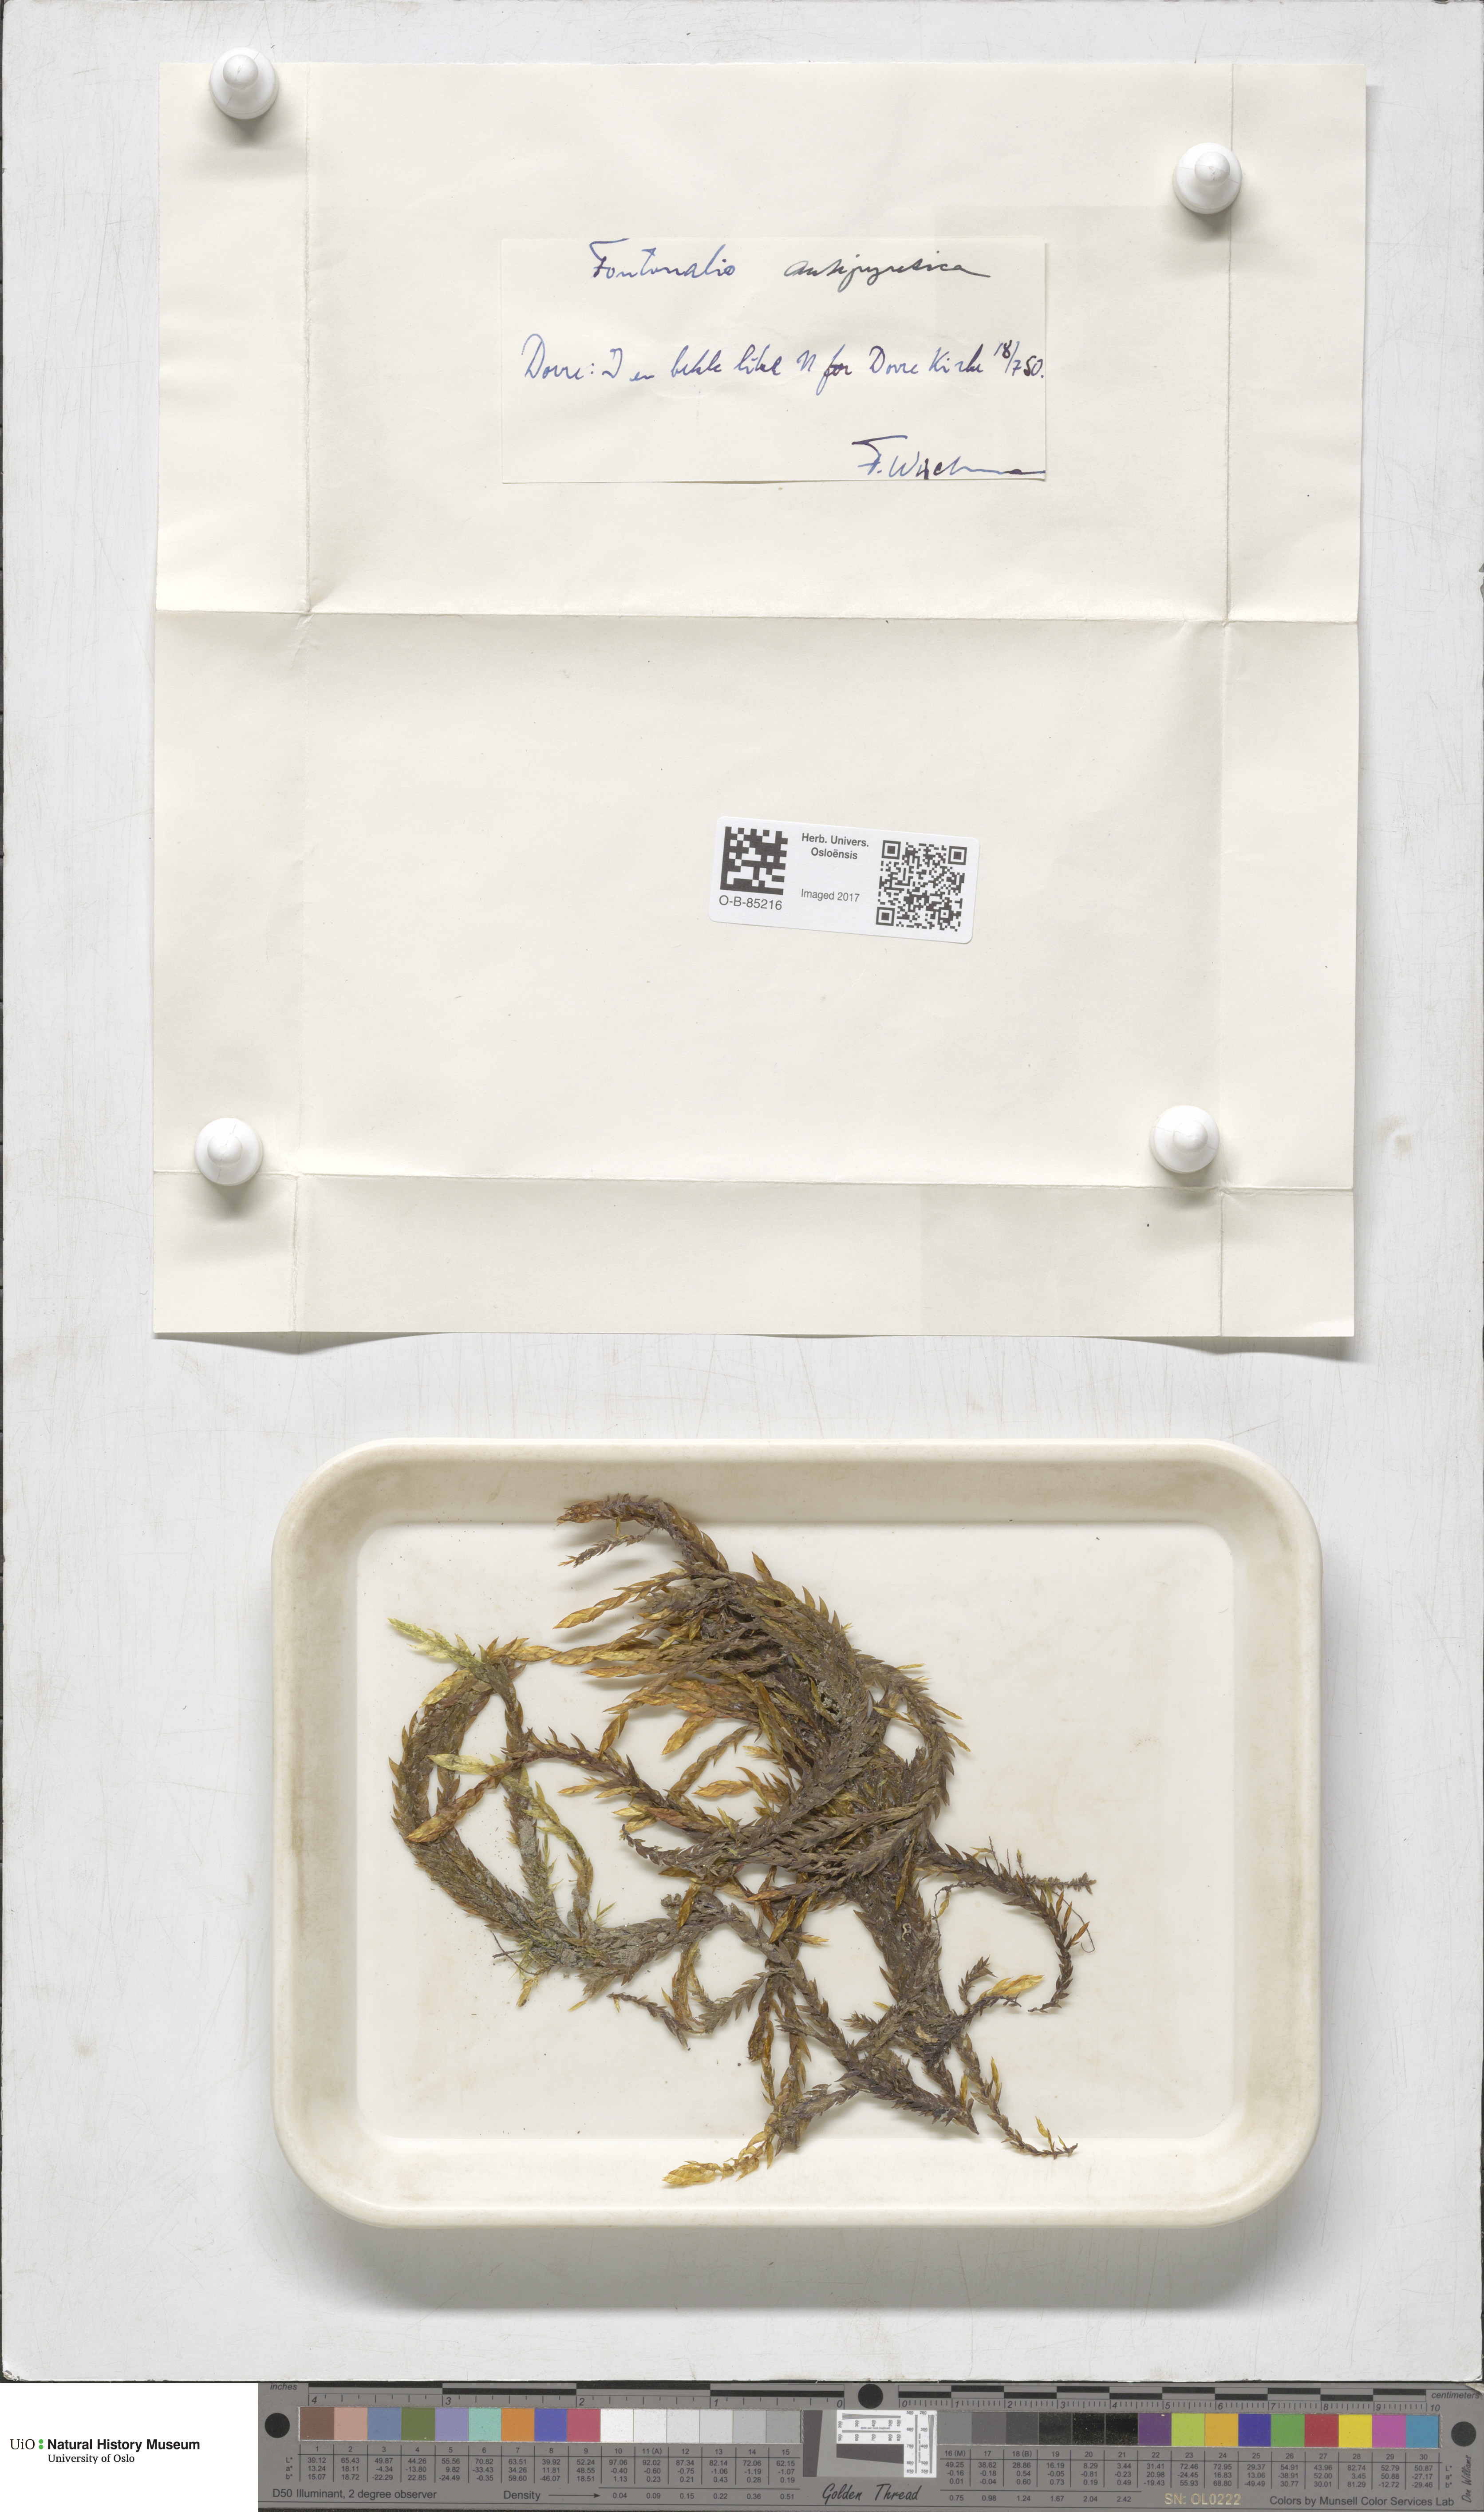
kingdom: Plantae
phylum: Bryophyta
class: Bryopsida
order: Hypnales
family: Fontinalaceae
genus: Fontinalis
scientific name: Fontinalis antipyretica
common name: Greater water-moss
